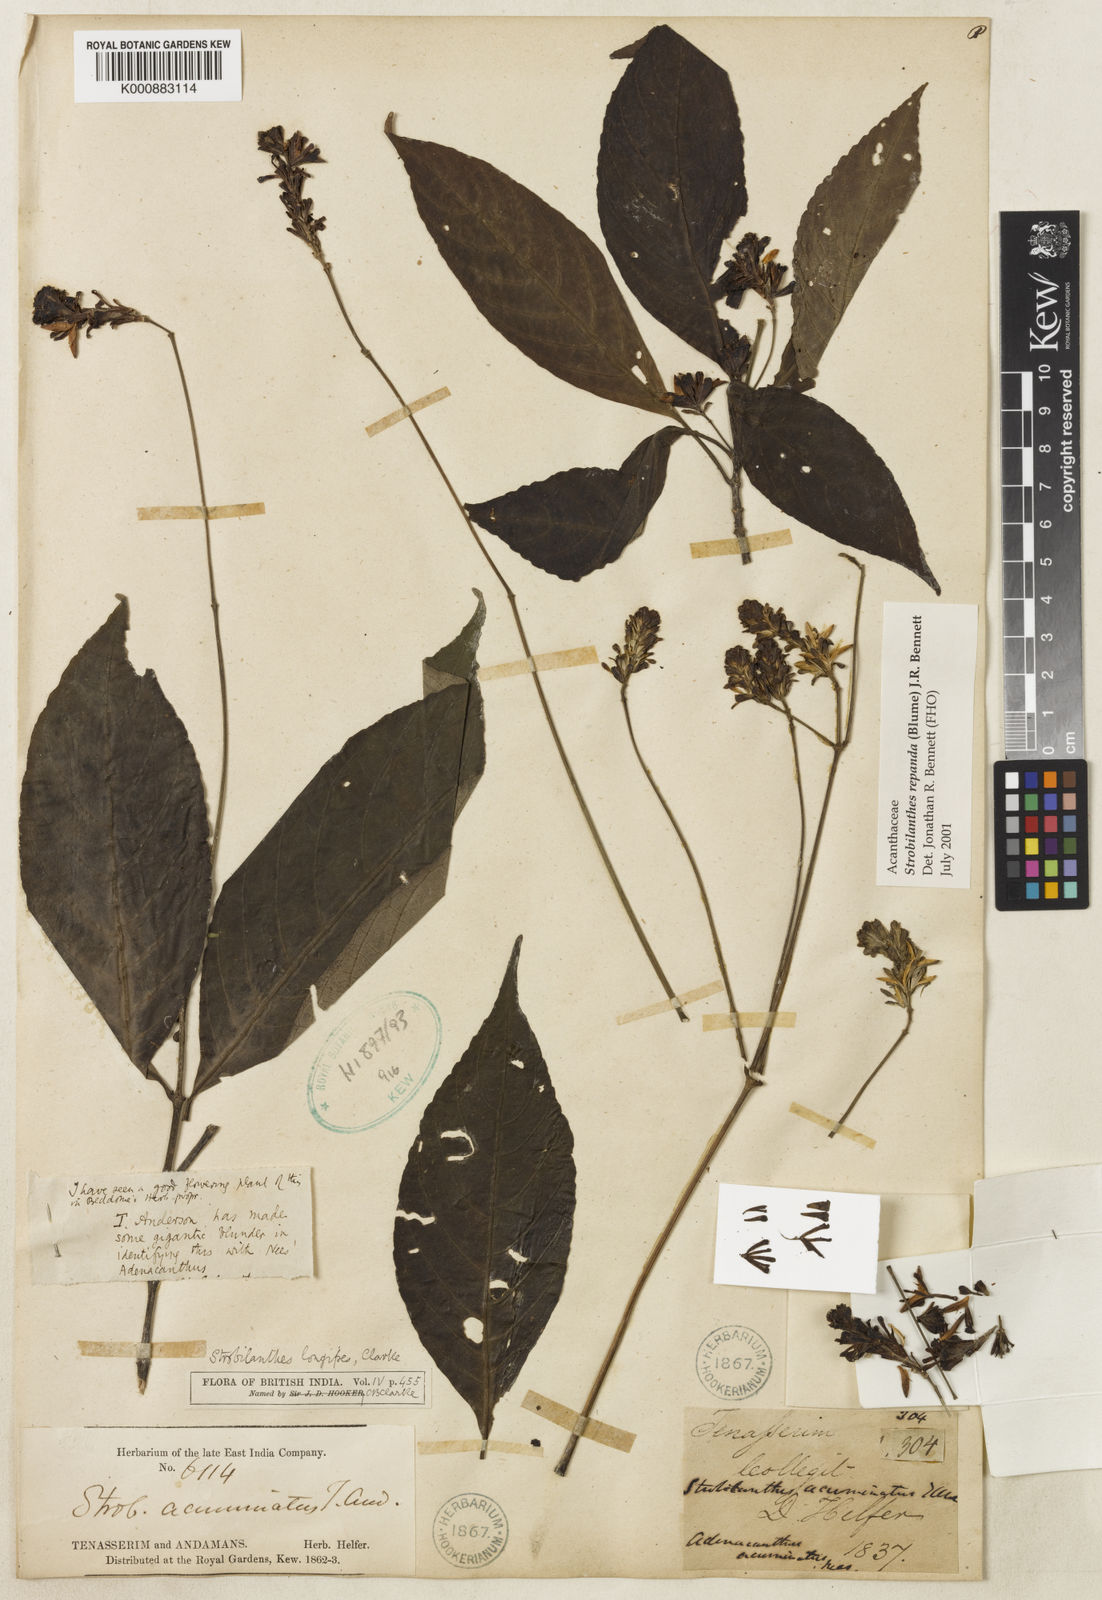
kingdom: Plantae
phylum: Tracheophyta
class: Magnoliopsida
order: Lamiales
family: Acanthaceae
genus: Strobilanthes
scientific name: Strobilanthes repanda
